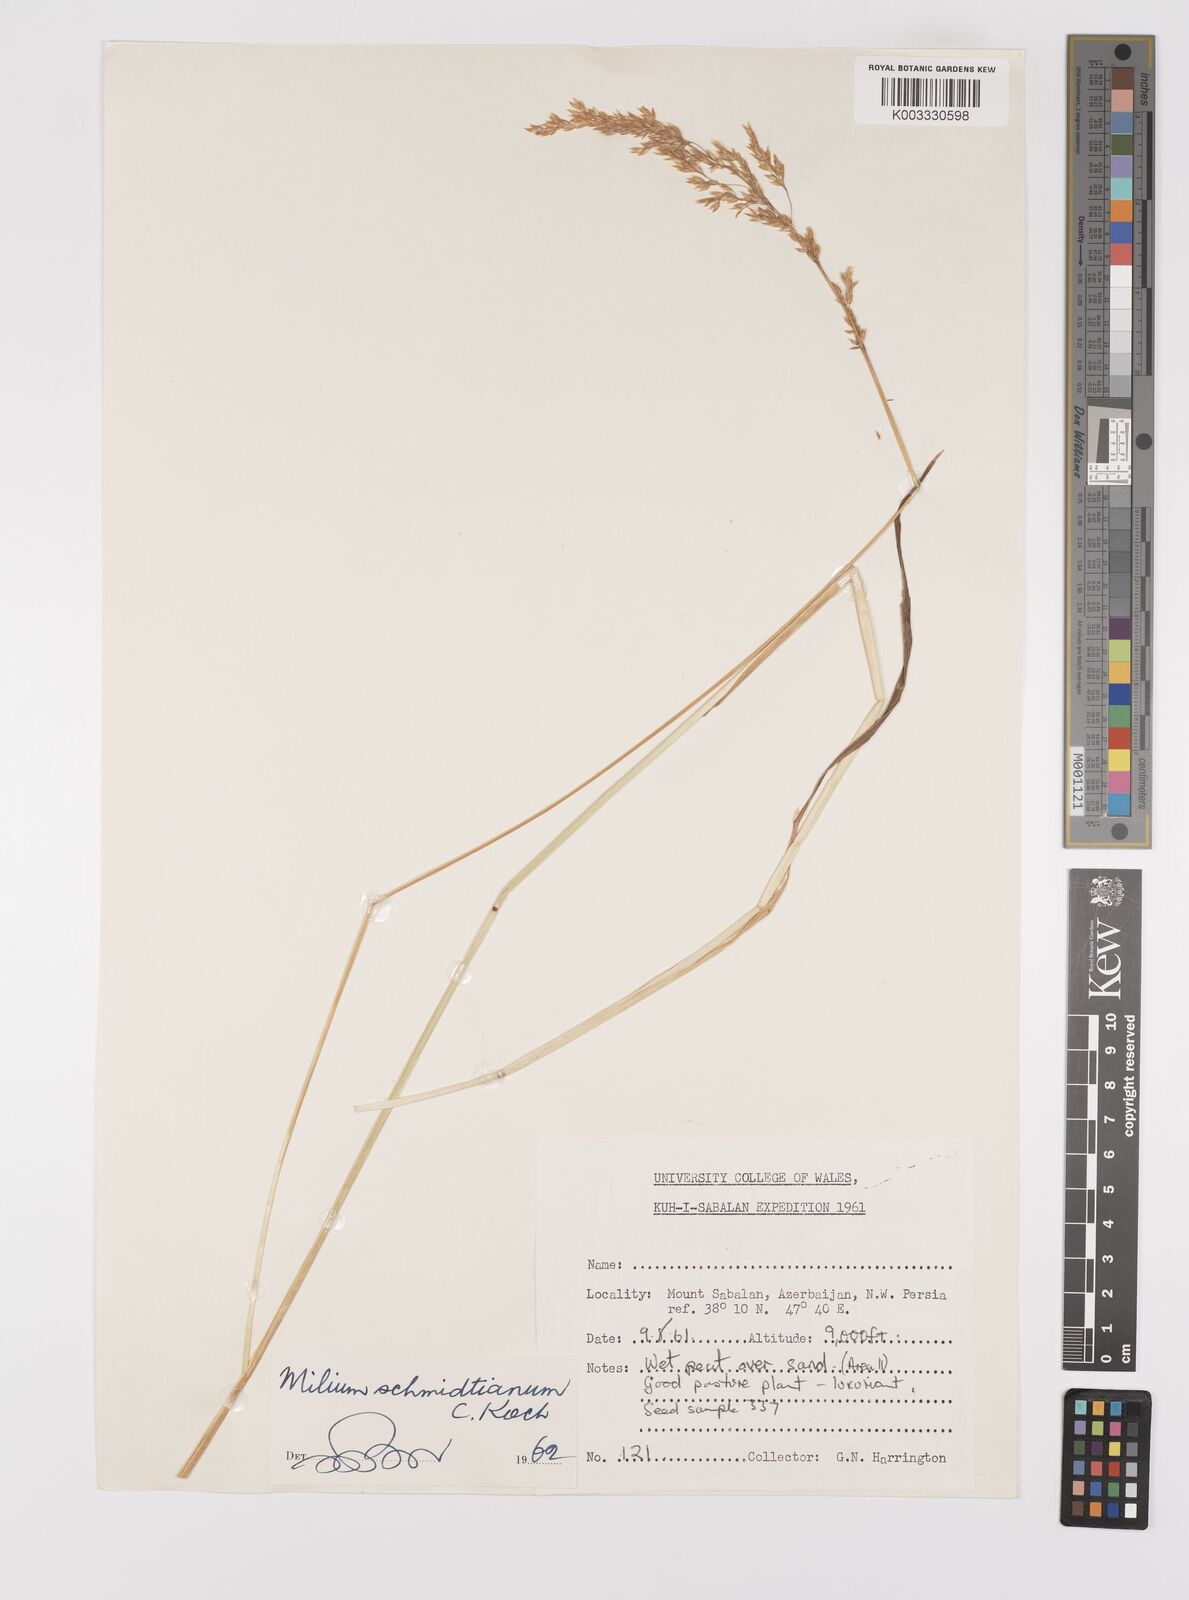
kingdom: Plantae
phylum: Tracheophyta
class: Liliopsida
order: Poales
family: Poaceae
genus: Milium
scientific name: Milium schmidtianum
